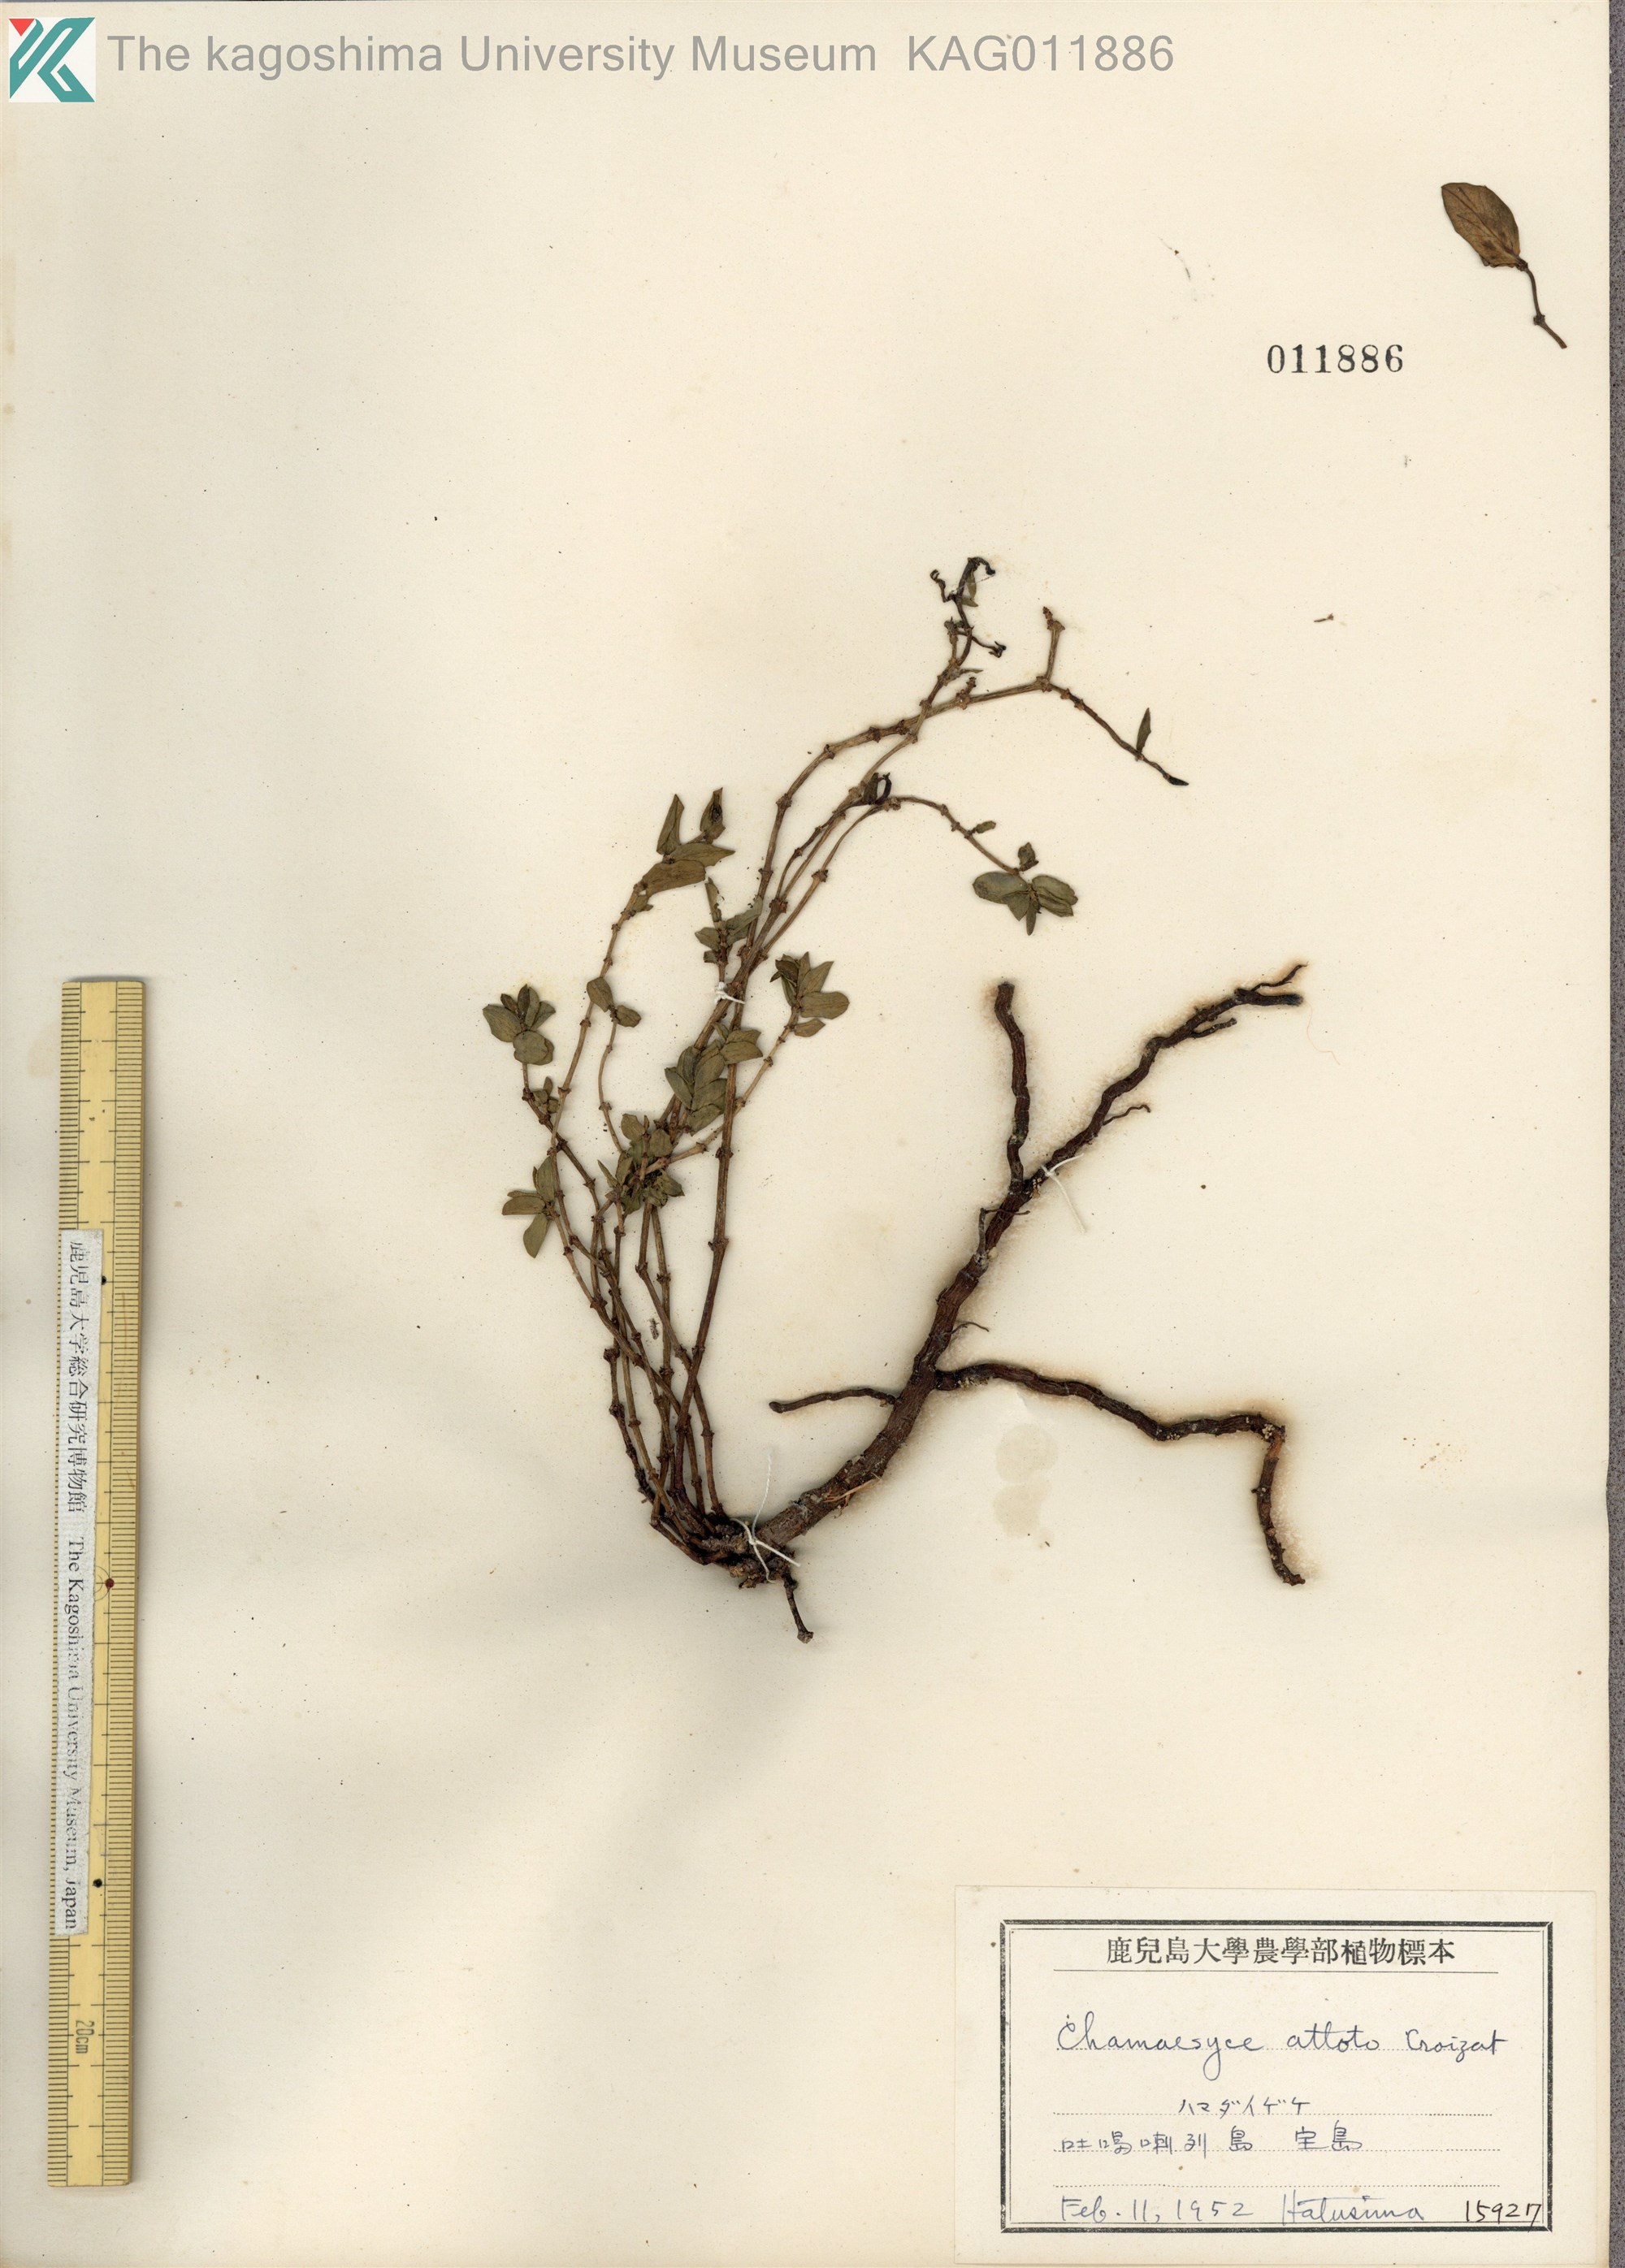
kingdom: Plantae
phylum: Tracheophyta
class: Magnoliopsida
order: Malpighiales
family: Euphorbiaceae
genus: Euphorbia
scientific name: Euphorbia chamissonis
